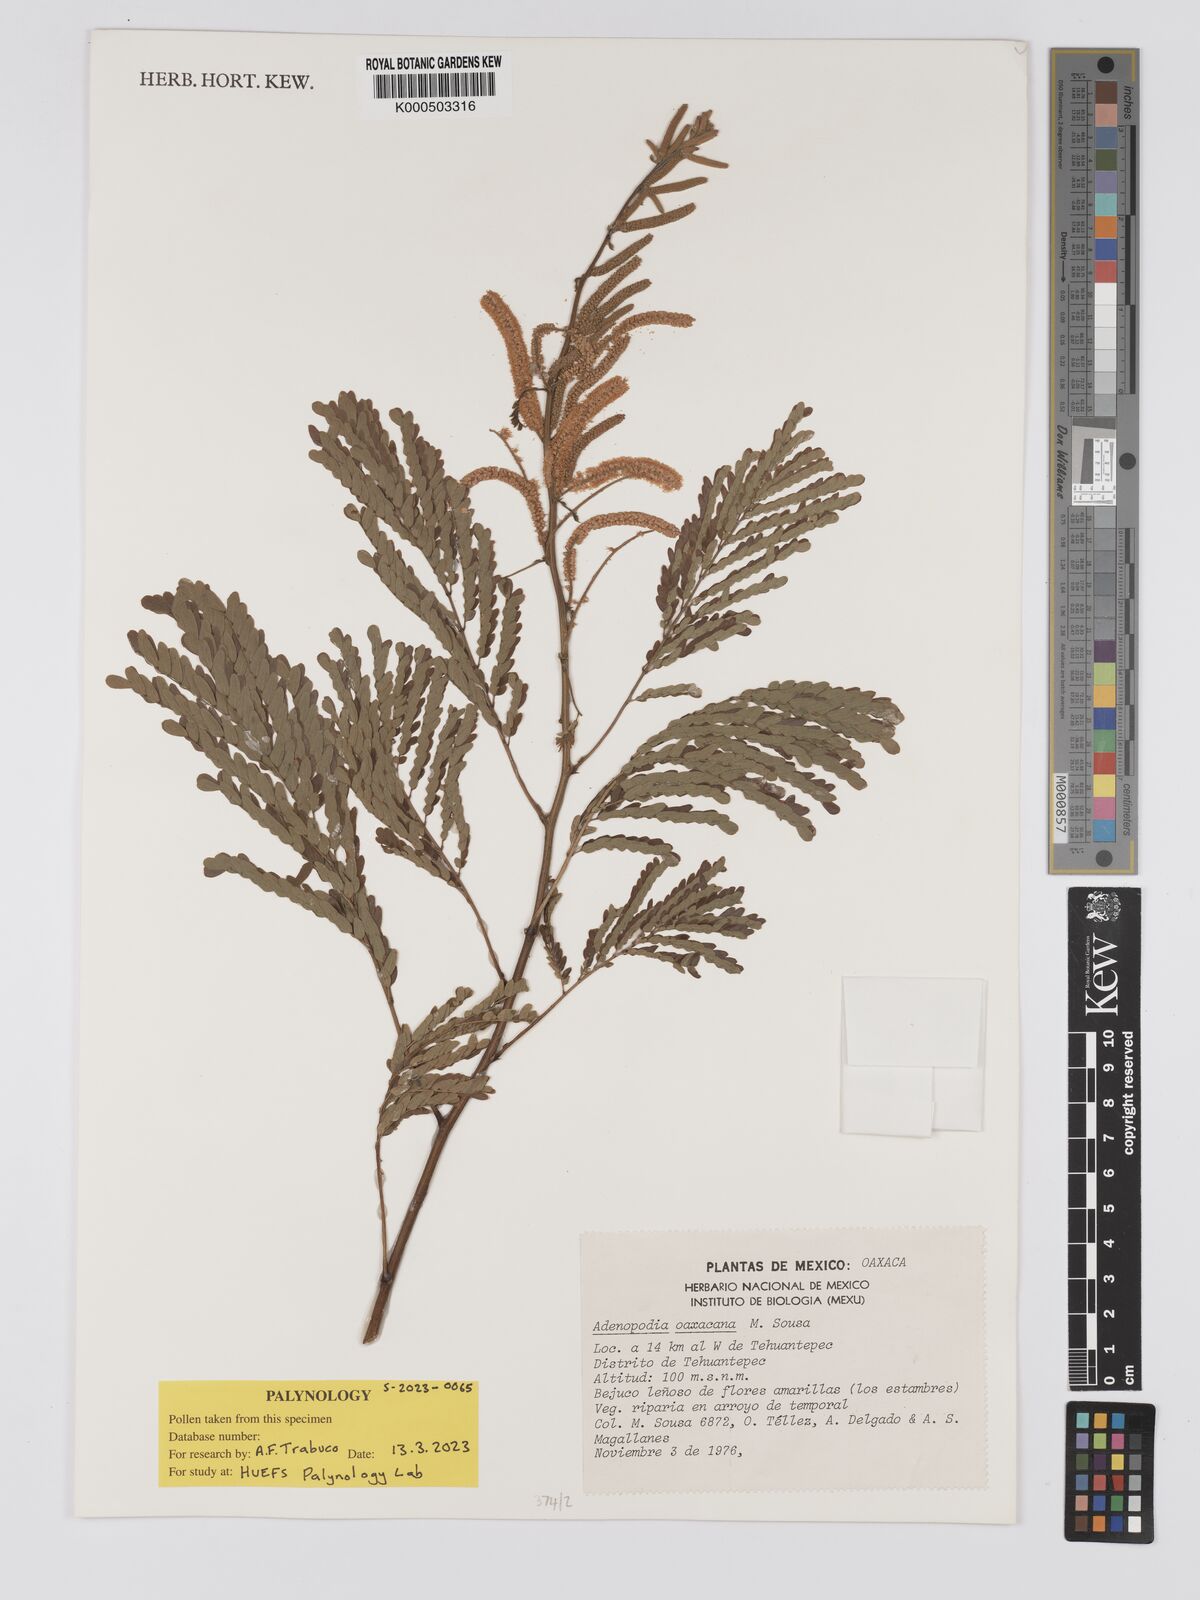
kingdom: Plantae
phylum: Tracheophyta
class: Magnoliopsida
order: Fabales
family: Fabaceae
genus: Adenopodia
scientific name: Adenopodia oaxacana
